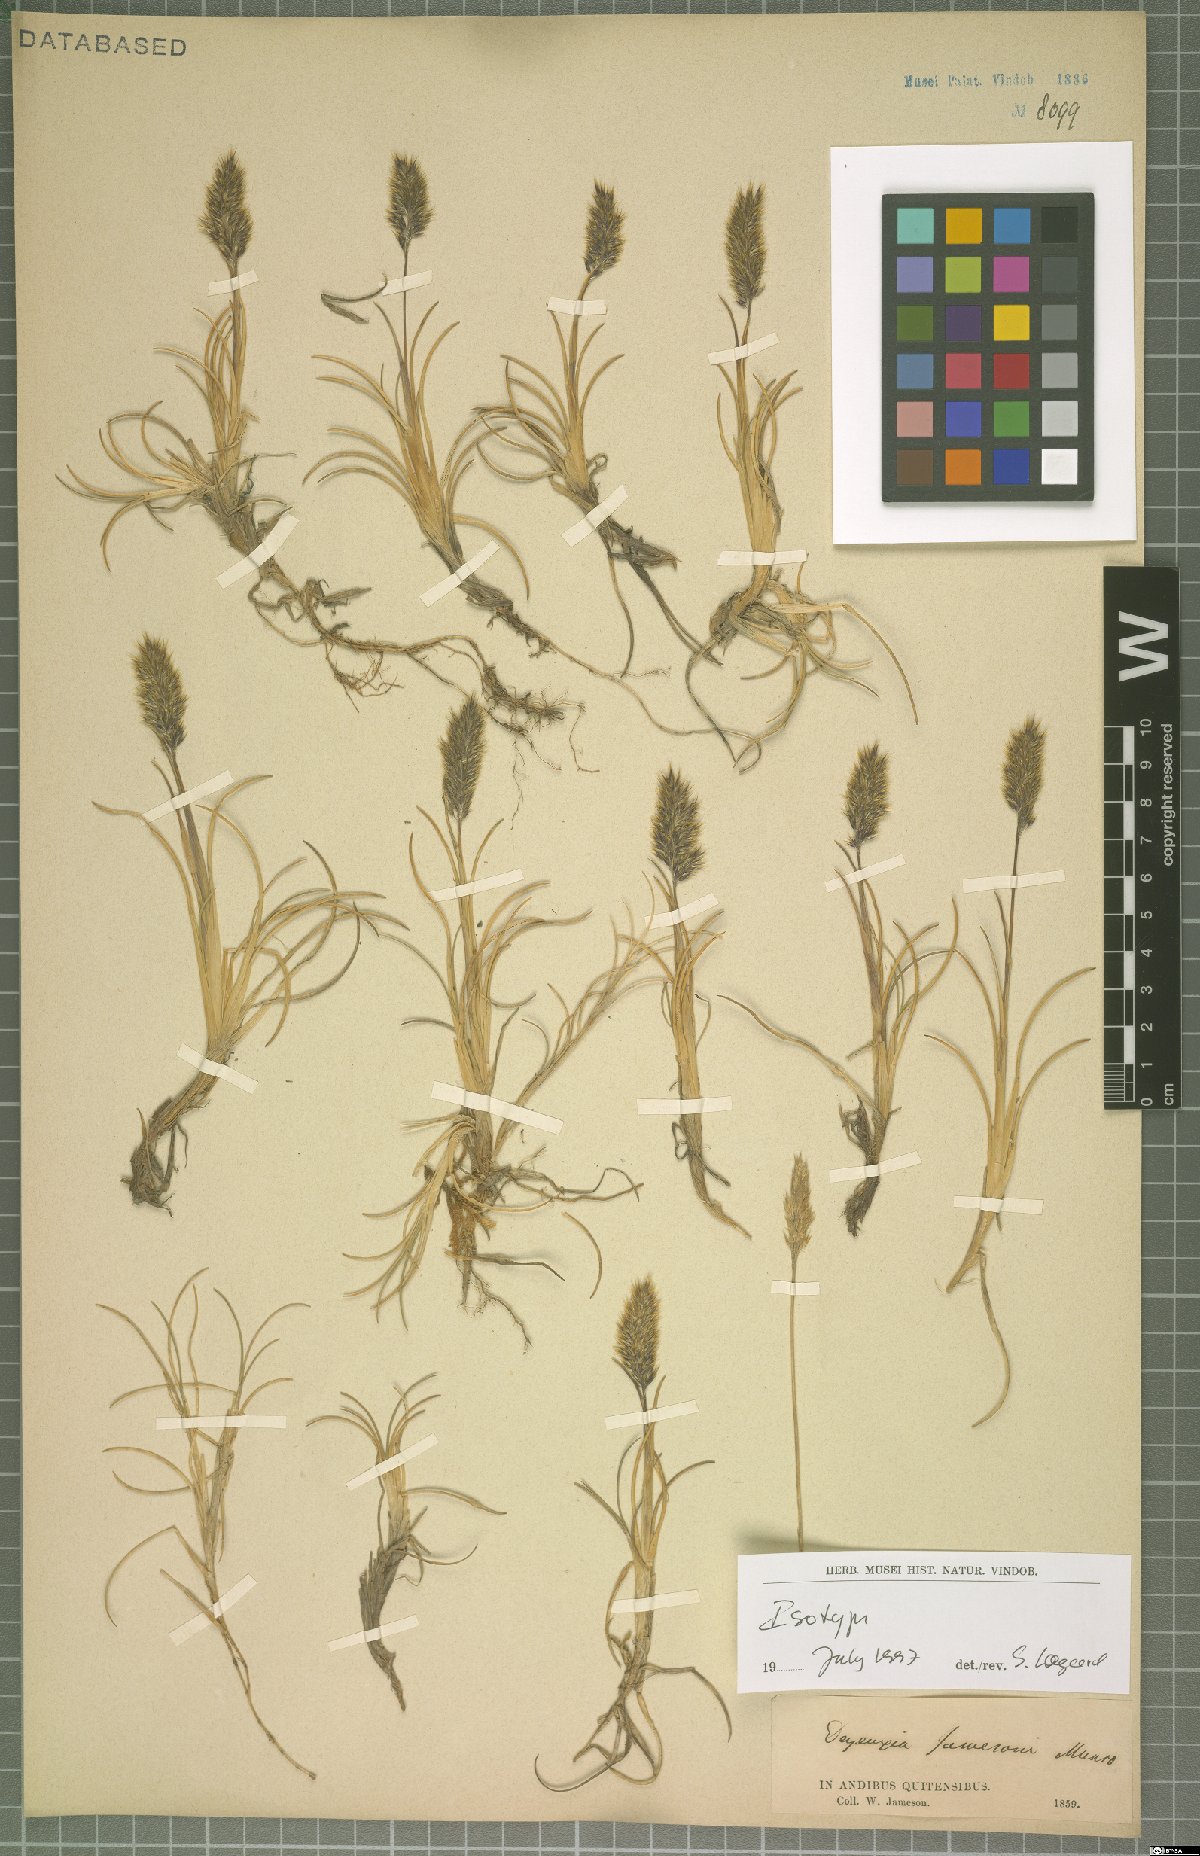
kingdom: Plantae
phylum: Tracheophyta
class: Liliopsida
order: Poales
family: Poaceae
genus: Cinnagrostis
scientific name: Cinnagrostis jamesonii
